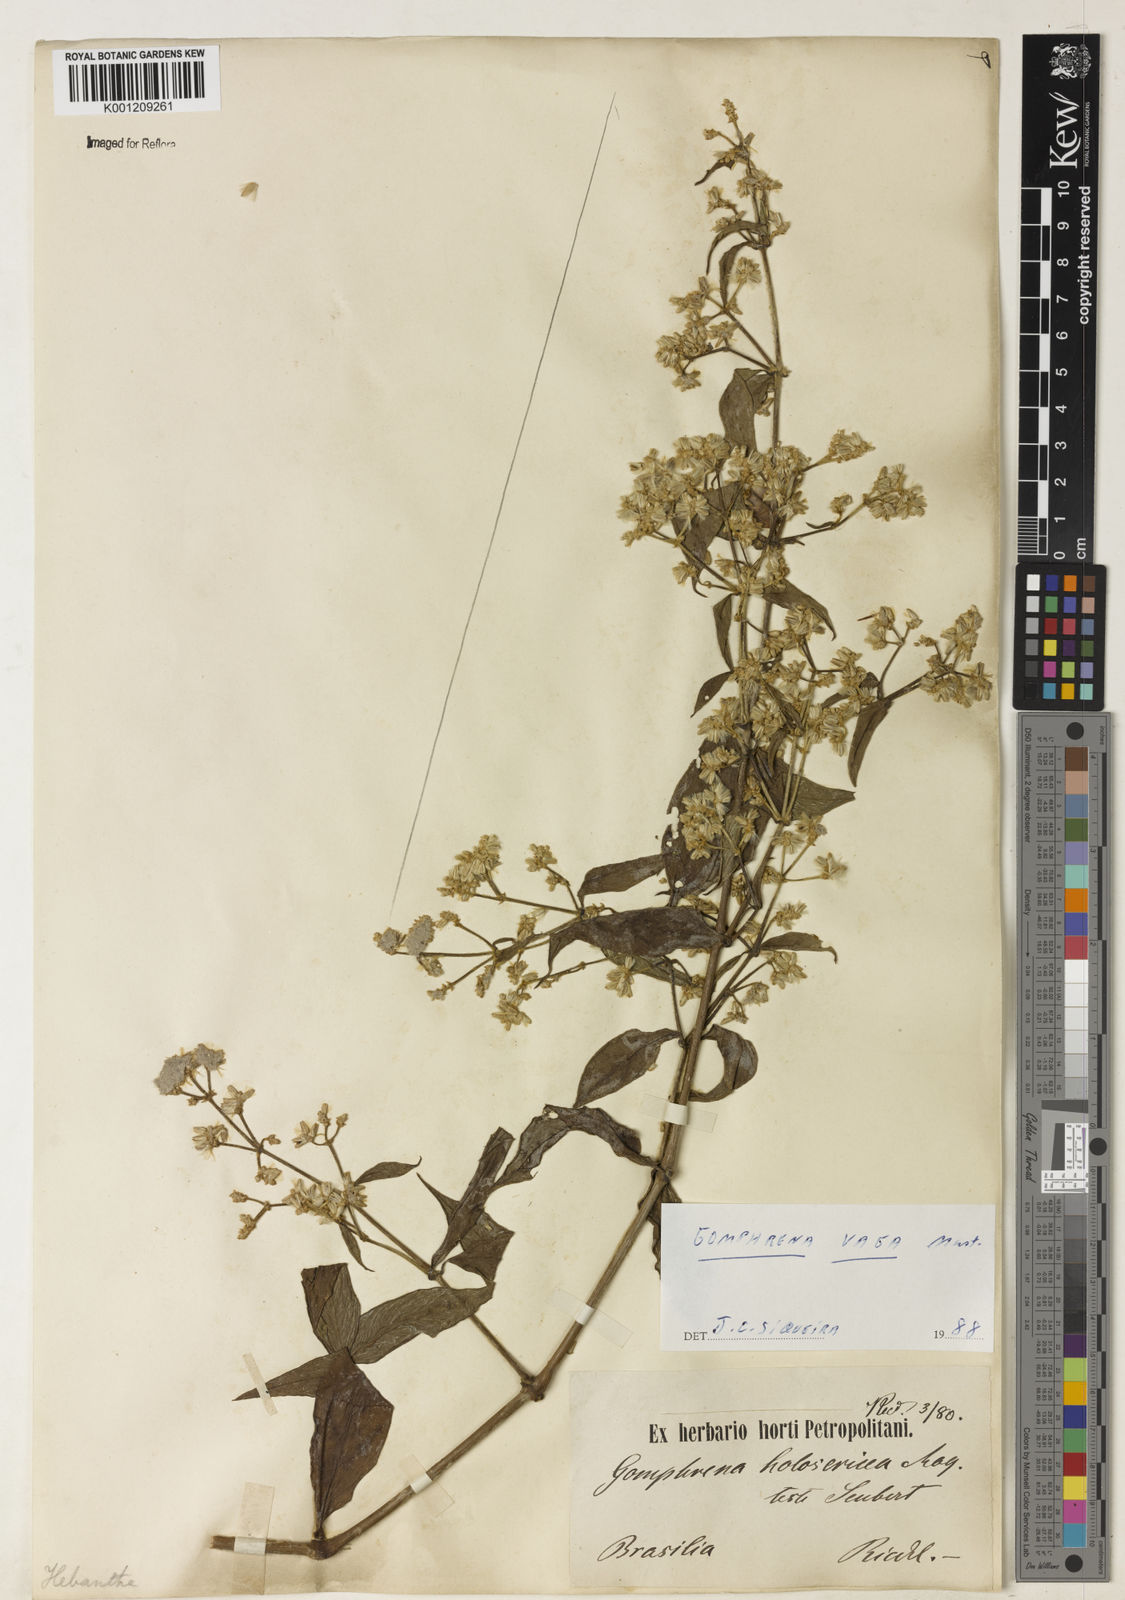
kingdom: Plantae
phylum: Tracheophyta
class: Magnoliopsida
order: Caryophyllales
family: Amaranthaceae
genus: Gomphrena
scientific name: Gomphrena vaga
